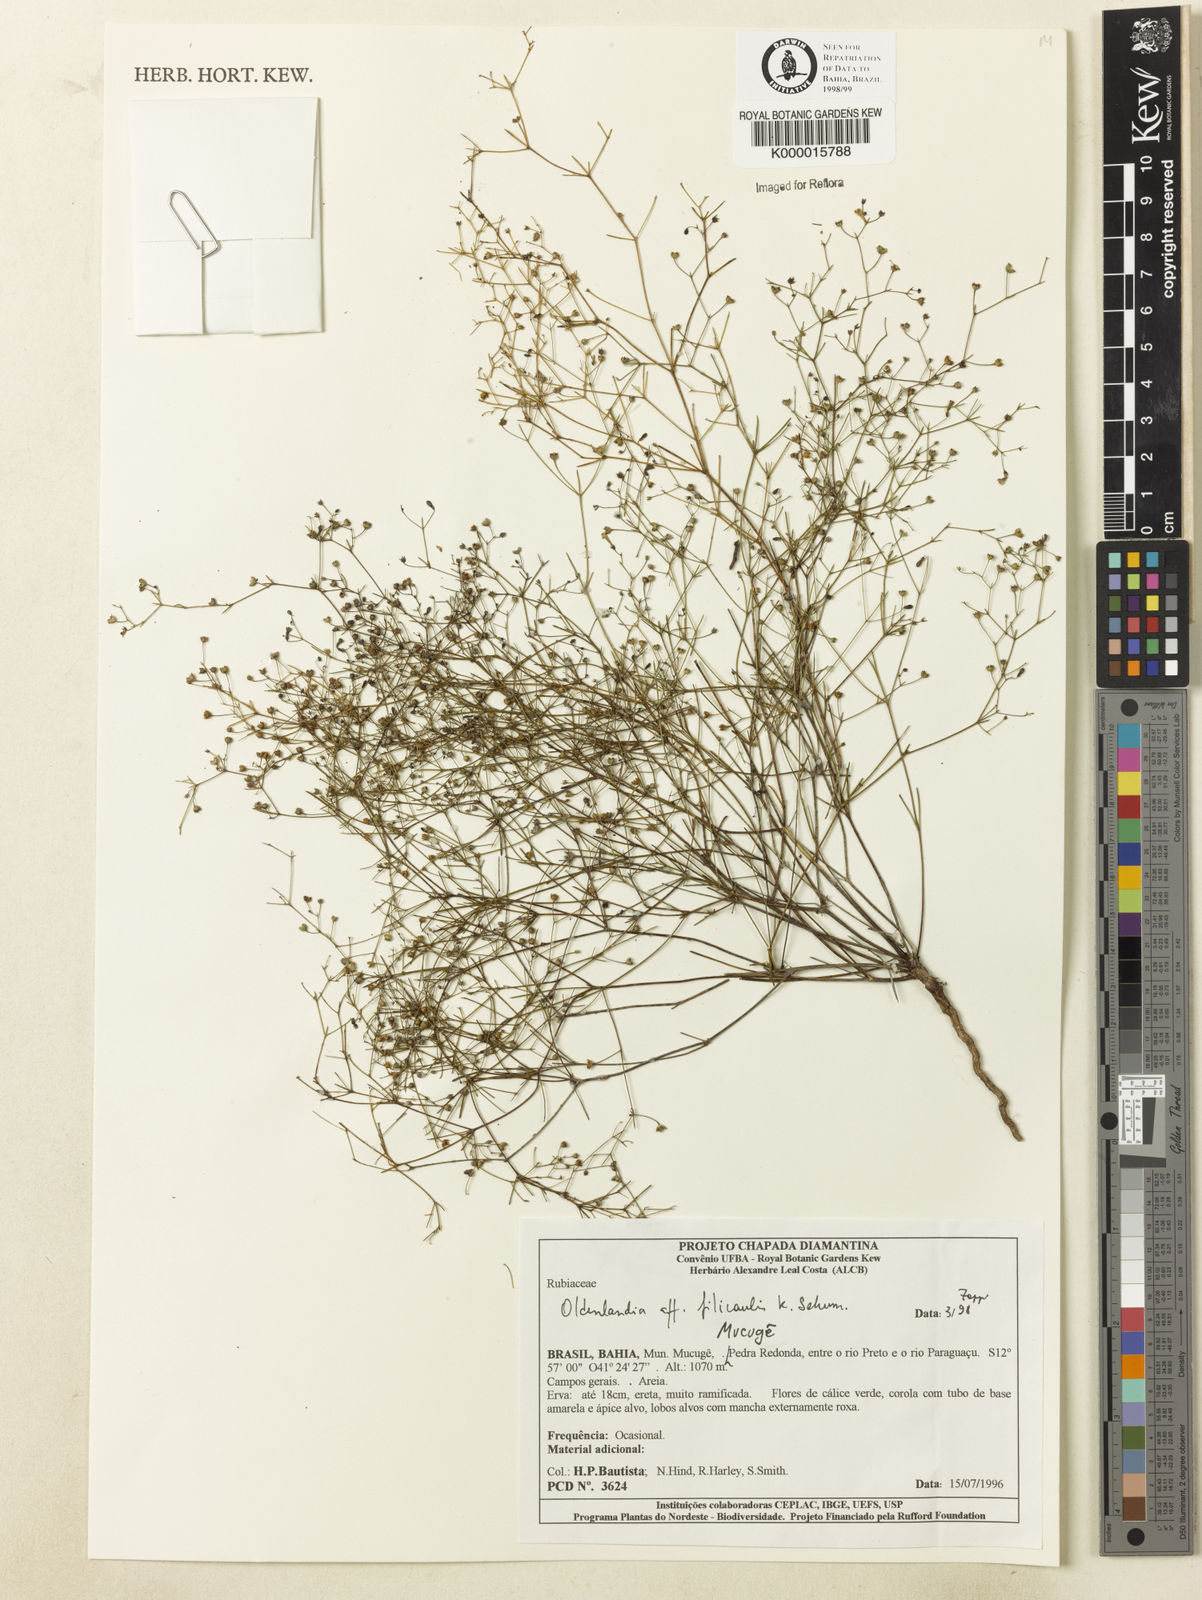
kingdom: Plantae
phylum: Tracheophyta
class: Magnoliopsida
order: Gentianales
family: Rubiaceae
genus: Oldenlandia
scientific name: Oldenlandia filicaulis
